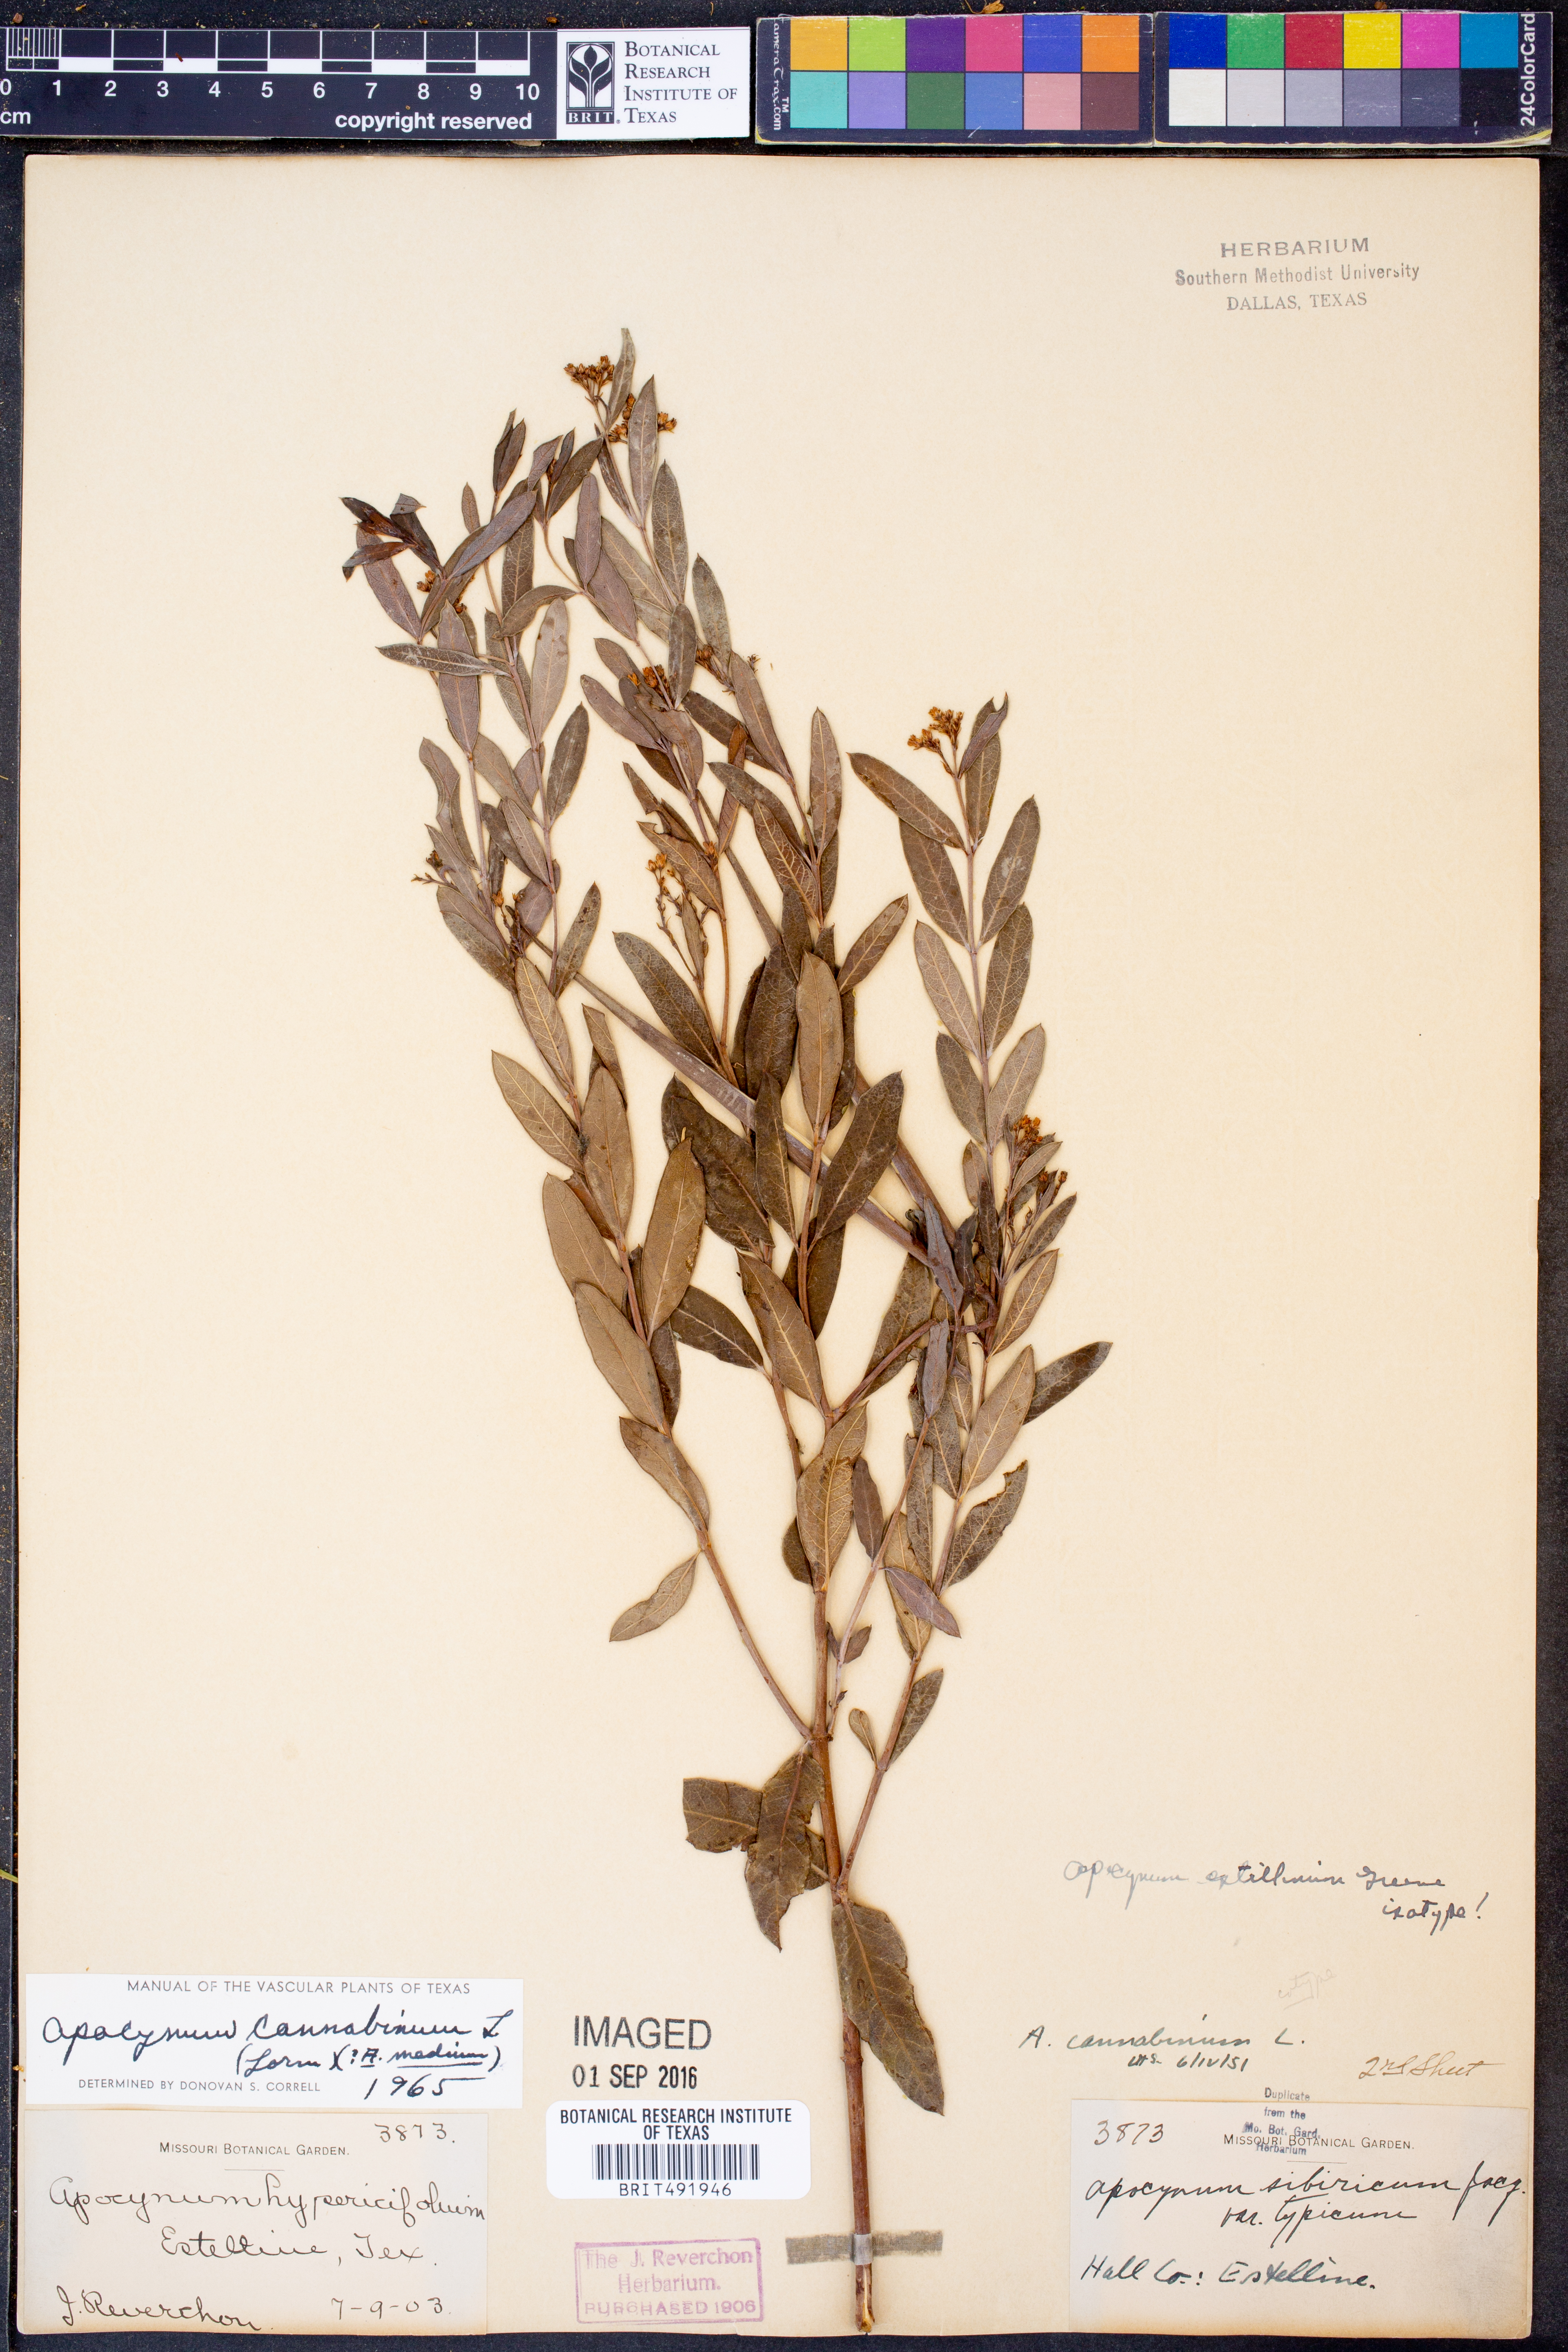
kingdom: Plantae
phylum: Tracheophyta
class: Magnoliopsida
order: Gentianales
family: Apocynaceae
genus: Apocynum
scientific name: Apocynum cannabinum
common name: Hemp dogbane
